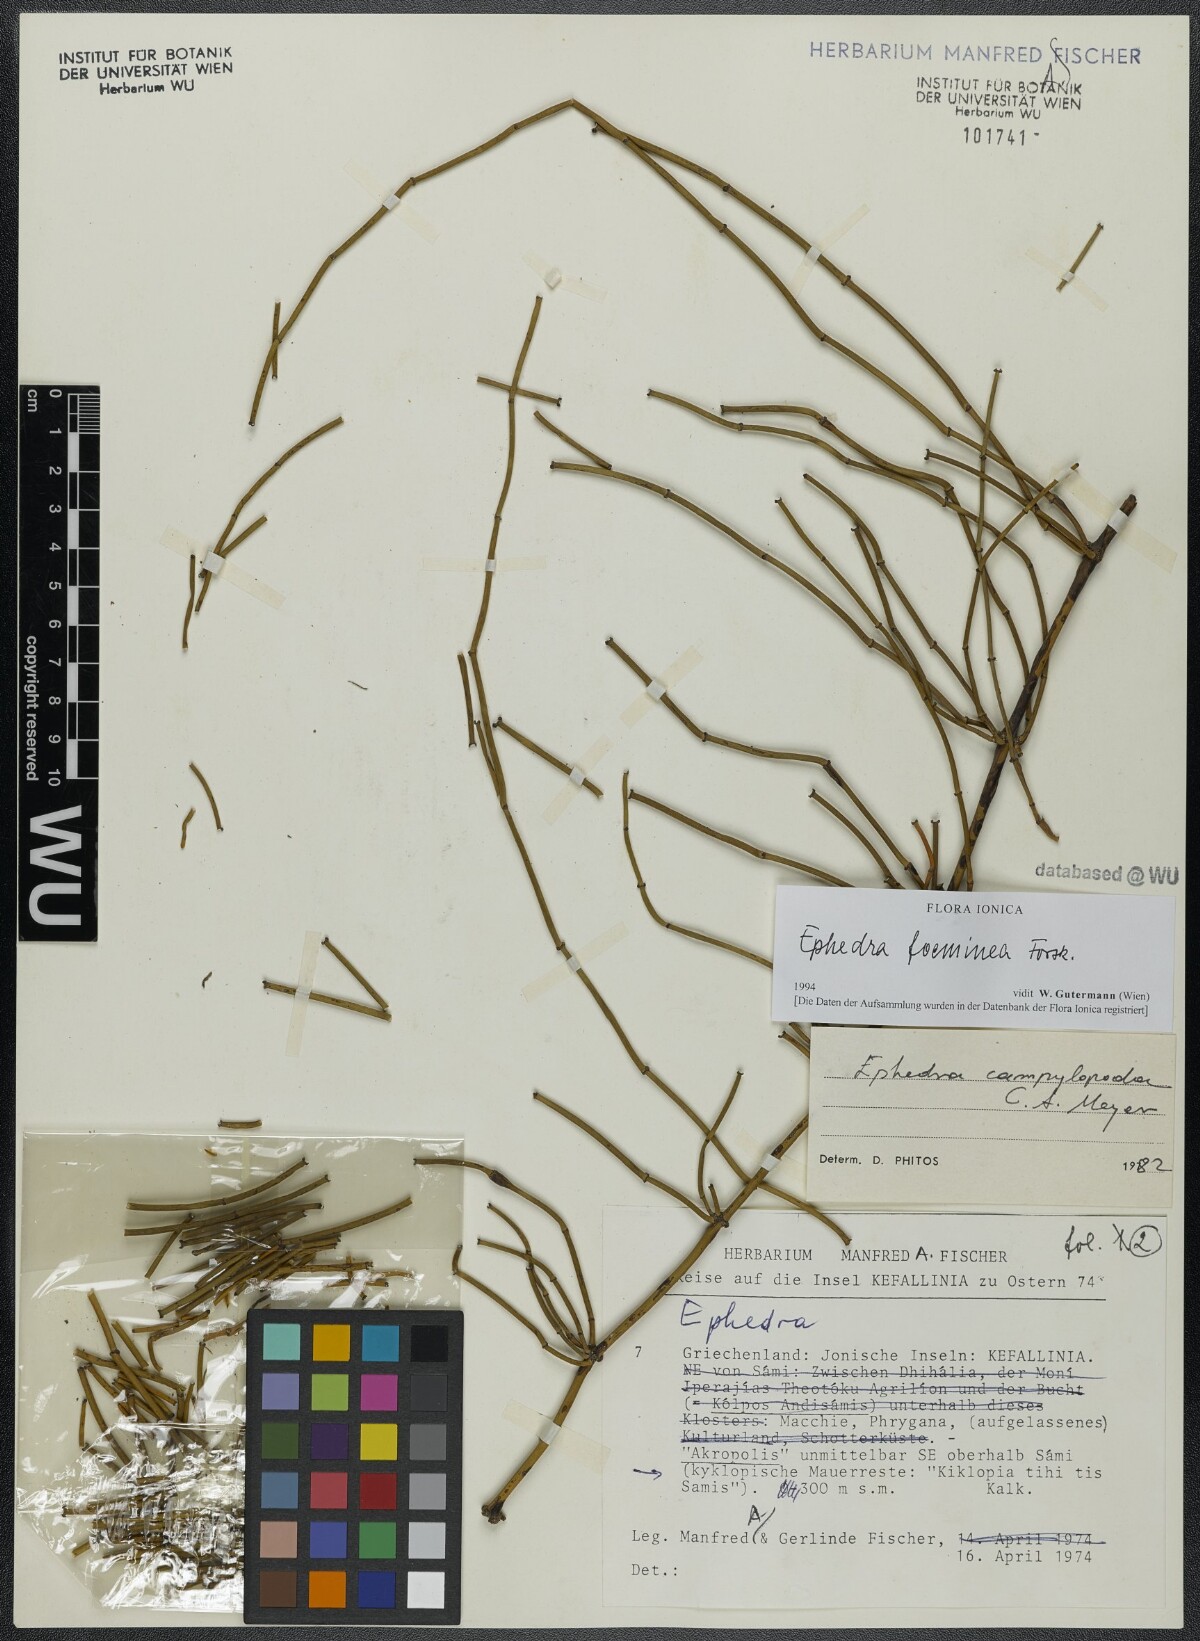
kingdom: Plantae
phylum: Tracheophyta
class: Gnetopsida
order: Ephedrales
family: Ephedraceae
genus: Ephedra
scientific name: Ephedra foeminea
